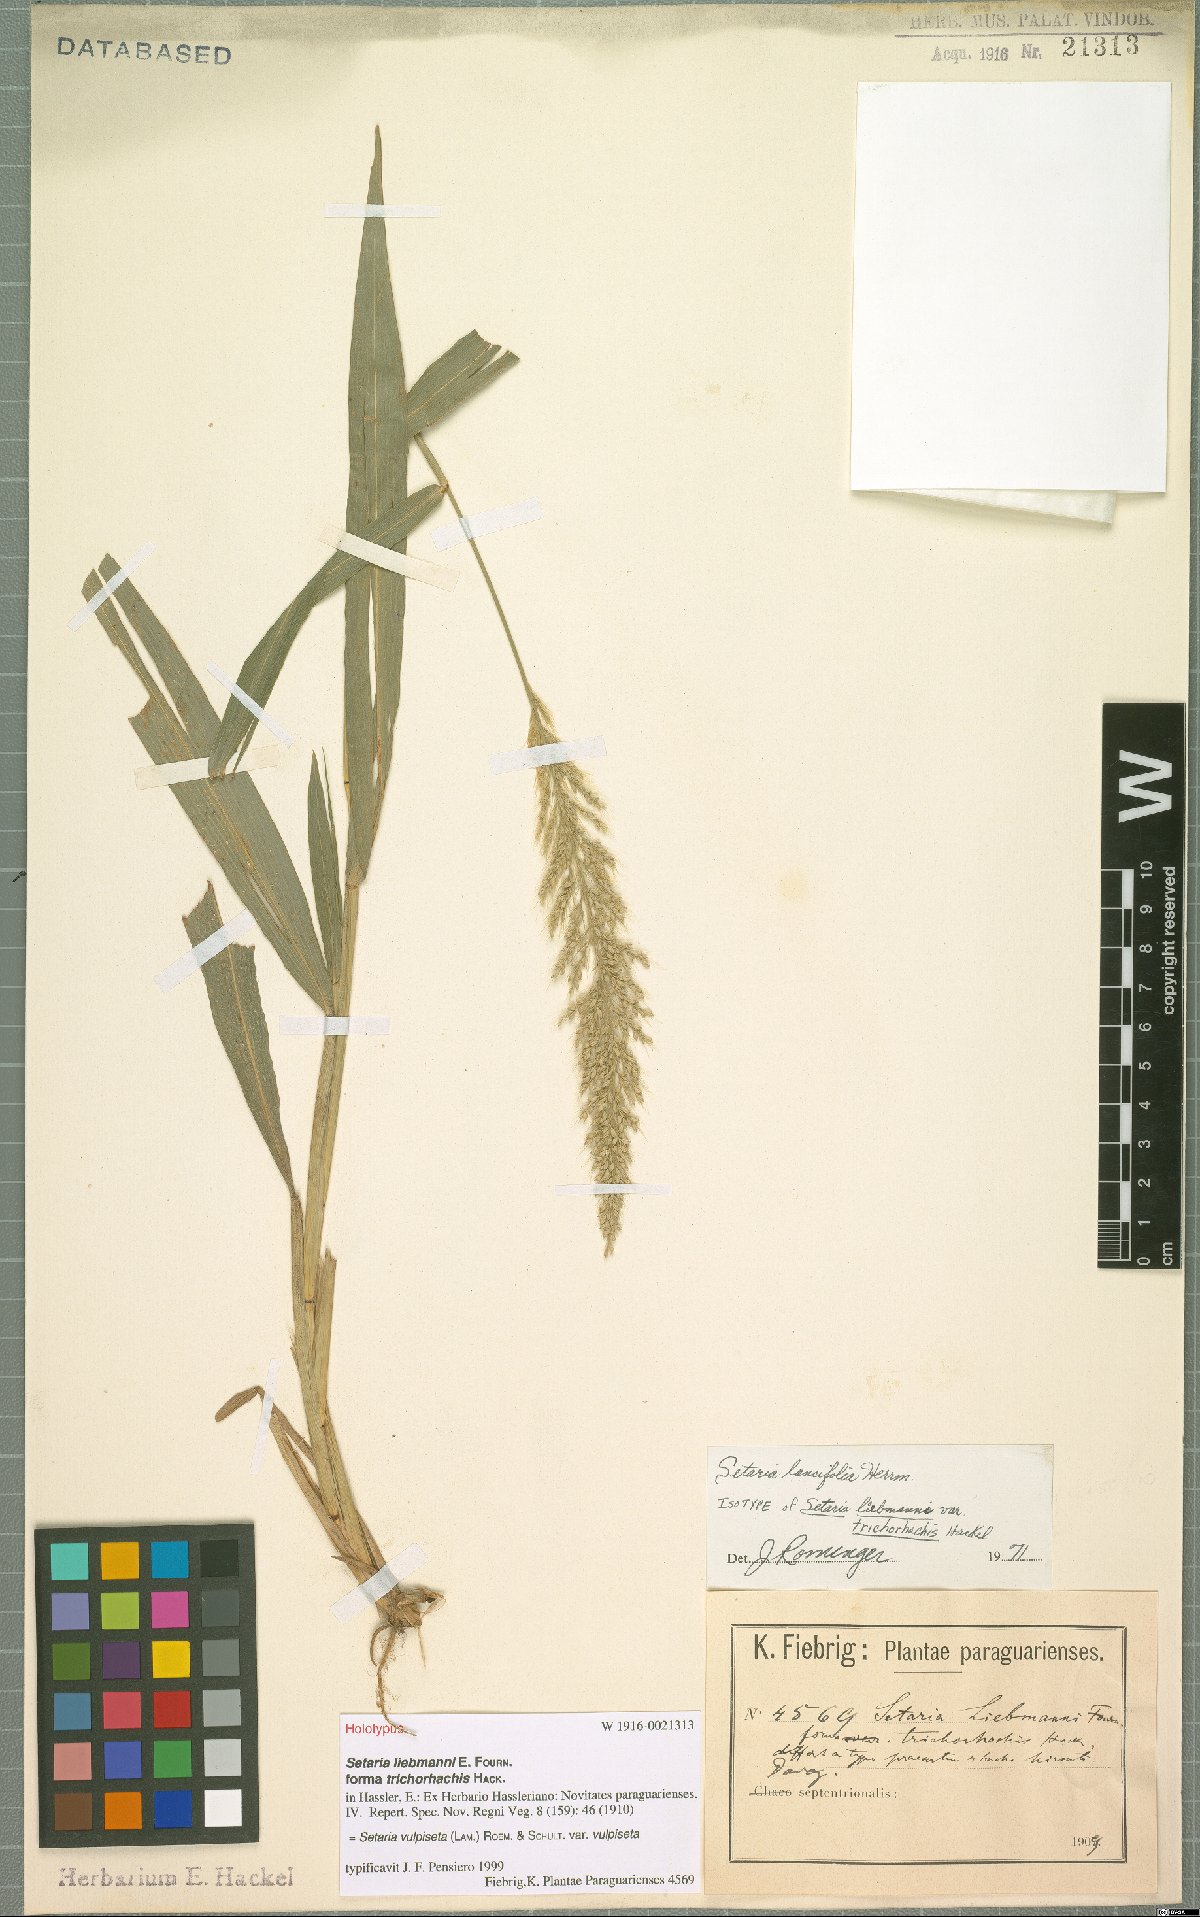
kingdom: Plantae
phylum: Tracheophyta
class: Liliopsida
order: Poales
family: Poaceae
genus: Setaria
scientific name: Setaria vulpiseta
